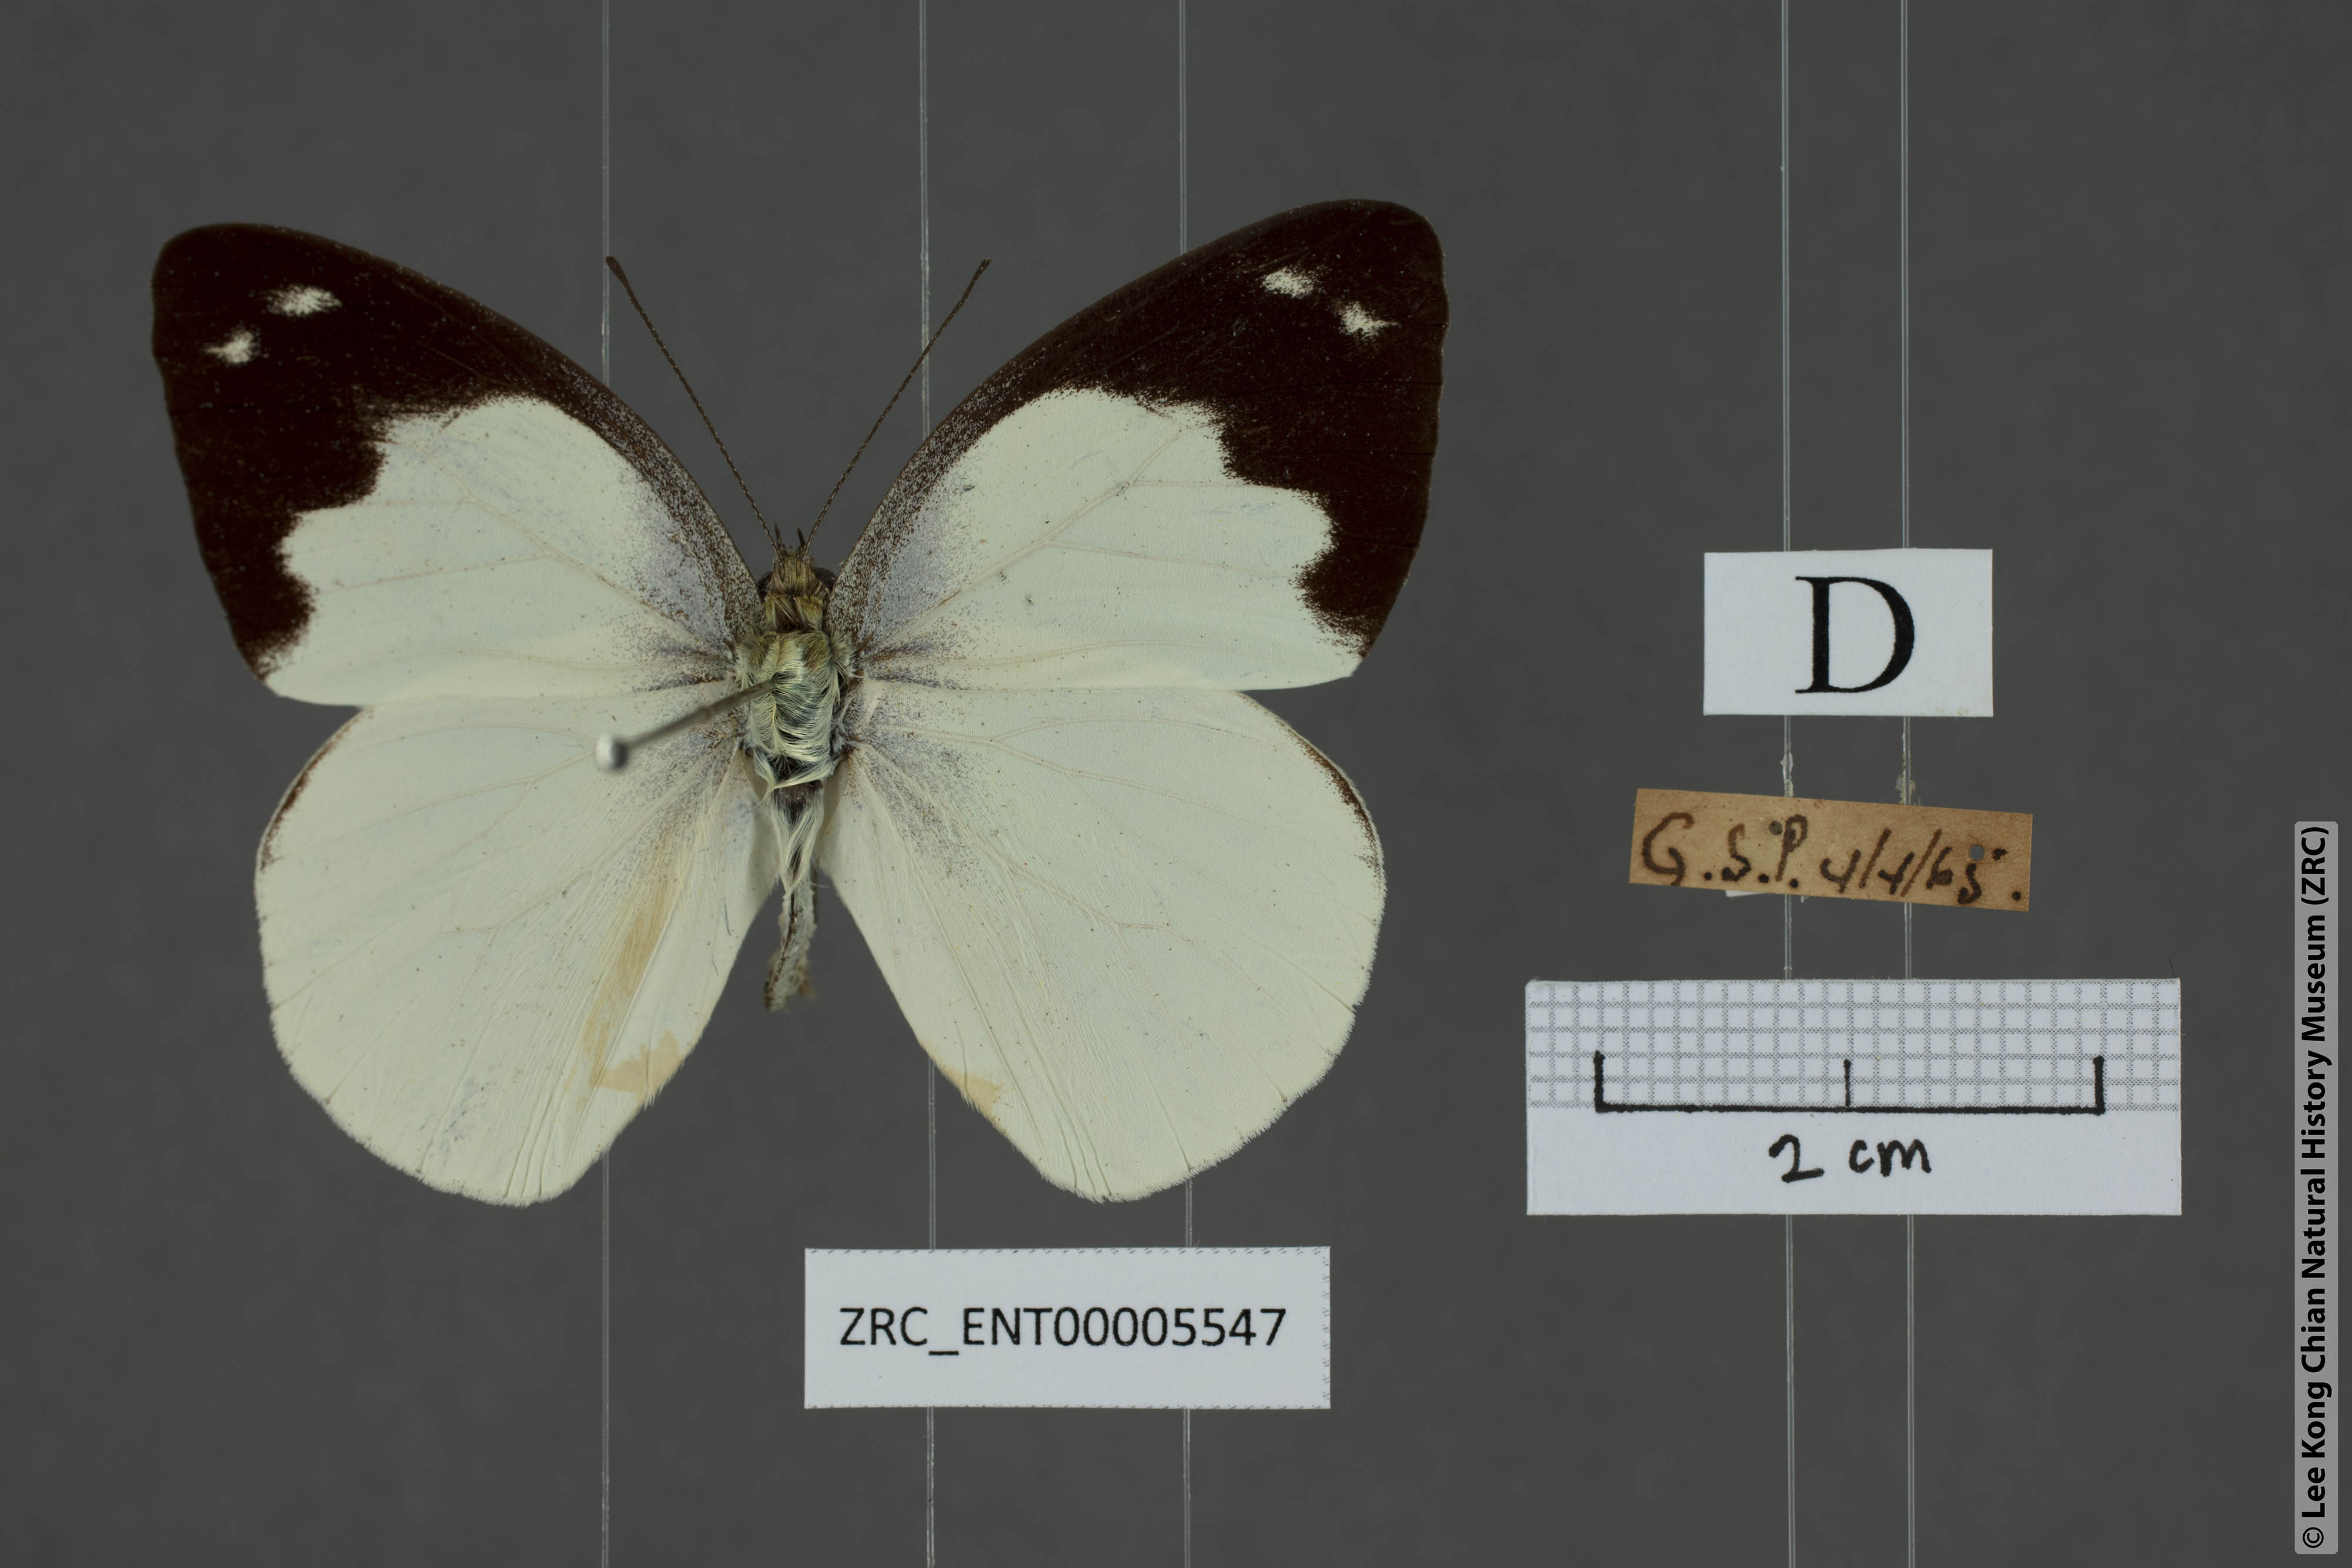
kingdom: Animalia
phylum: Arthropoda
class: Insecta
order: Lepidoptera
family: Pieridae
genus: Appias
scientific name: Appias indra
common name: Plain puffin
